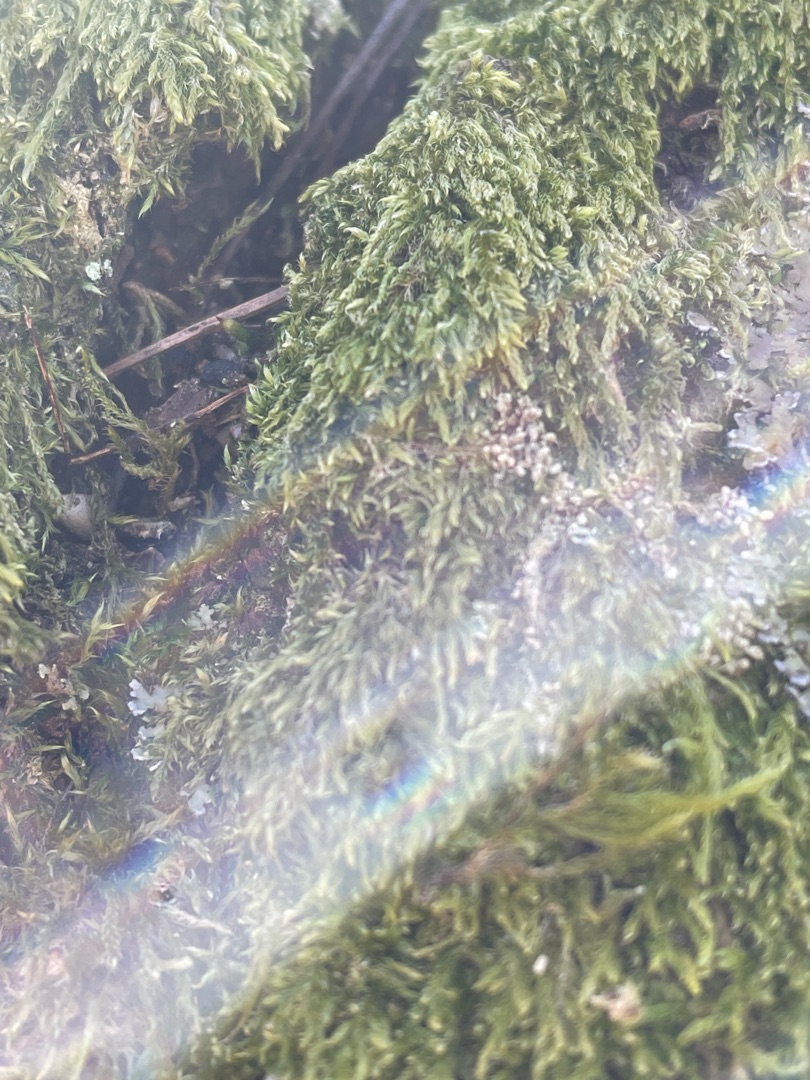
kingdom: Plantae
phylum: Bryophyta
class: Bryopsida
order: Hypnales
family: Hypnaceae
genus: Hypnum
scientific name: Hypnum
